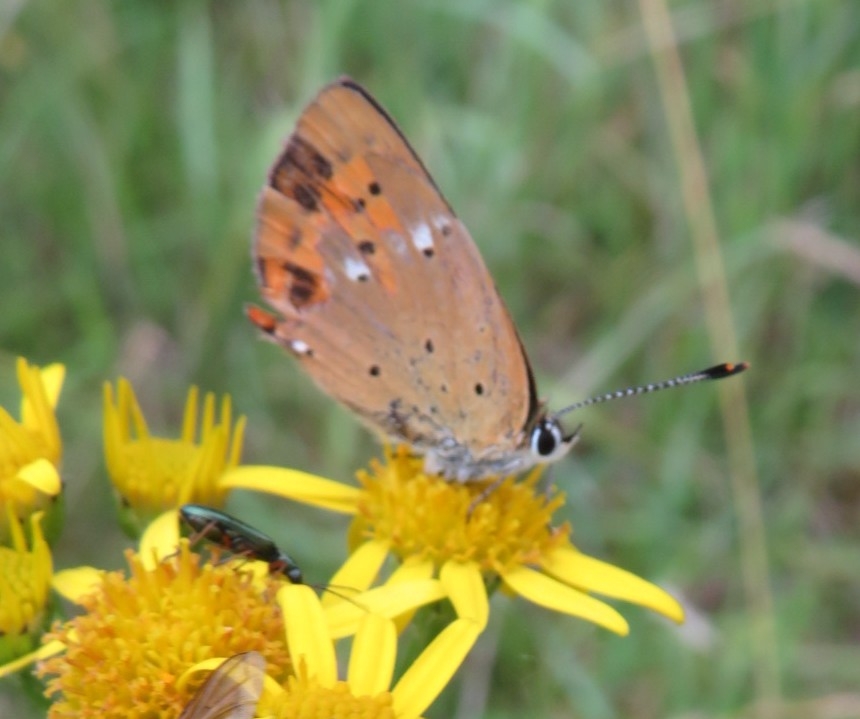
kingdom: Animalia
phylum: Arthropoda
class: Insecta
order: Lepidoptera
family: Lycaenidae
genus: Lycaena
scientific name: Lycaena virgaureae
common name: Dukatsommerfugl
